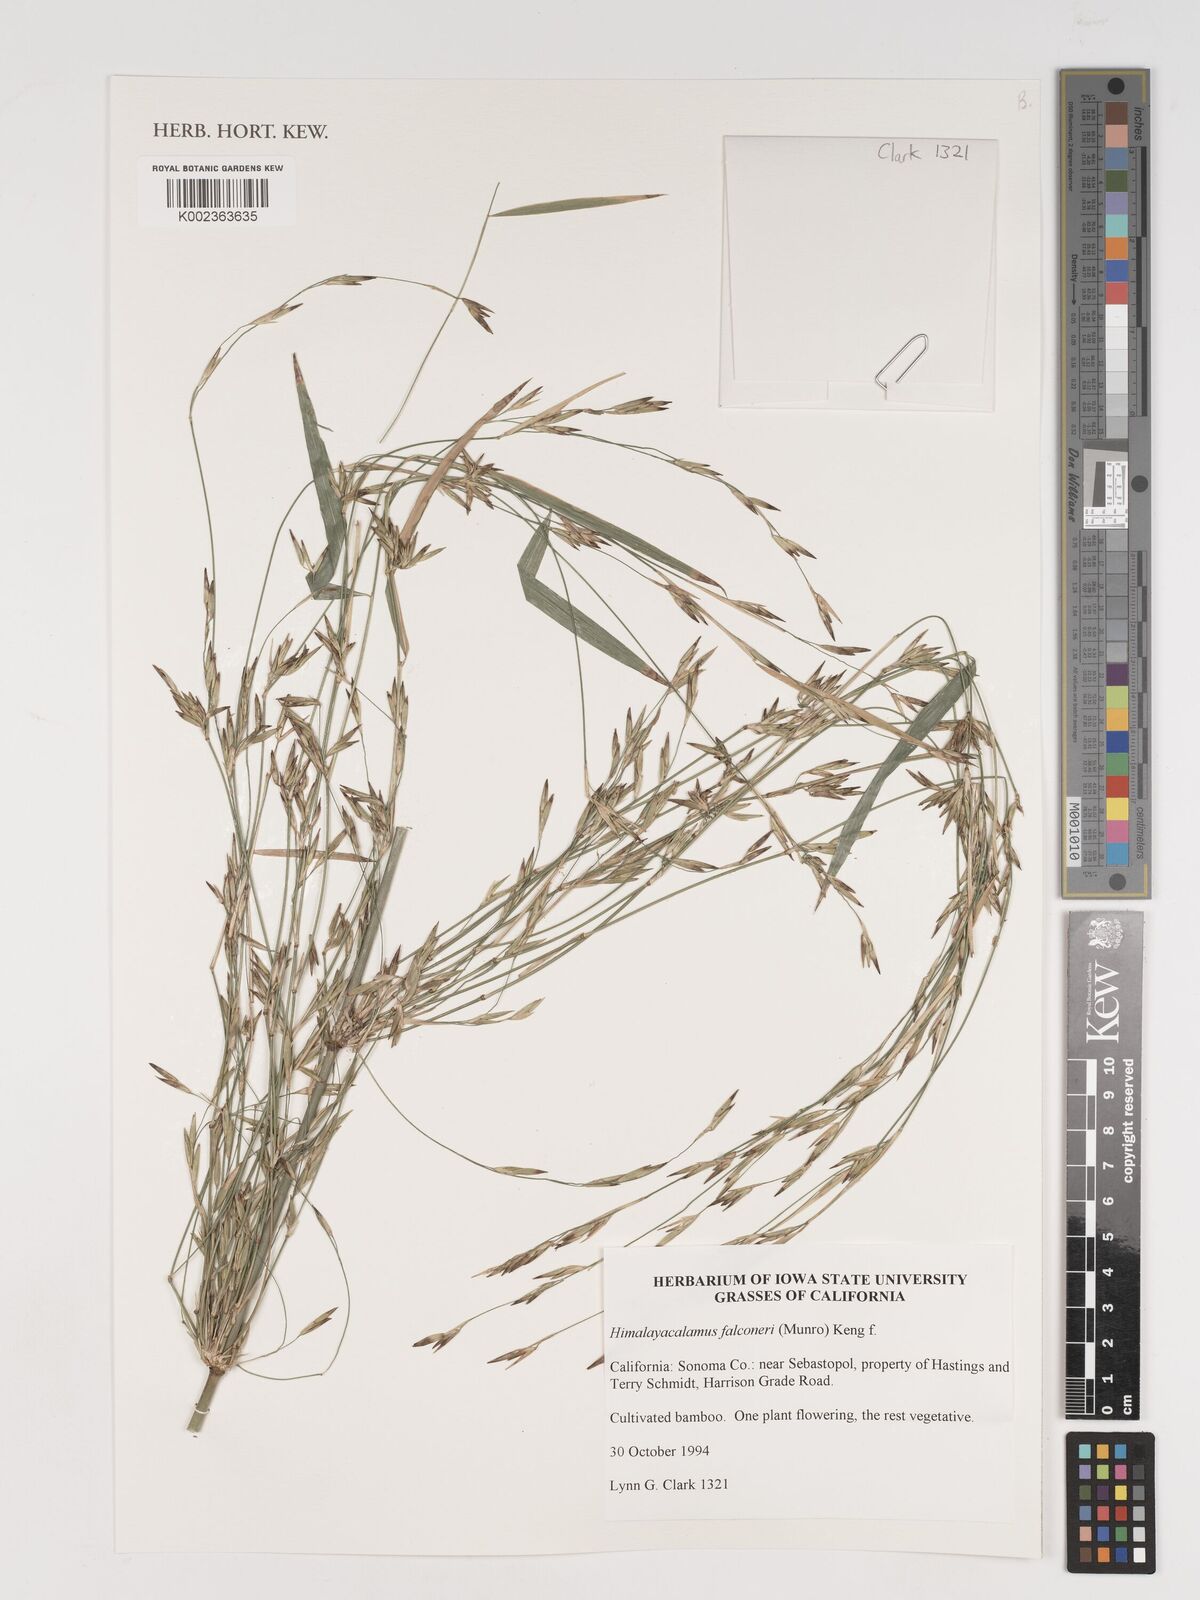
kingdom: Plantae
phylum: Tracheophyta
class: Liliopsida
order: Poales
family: Poaceae
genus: Himalayacalamus
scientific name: Himalayacalamus falconeri
